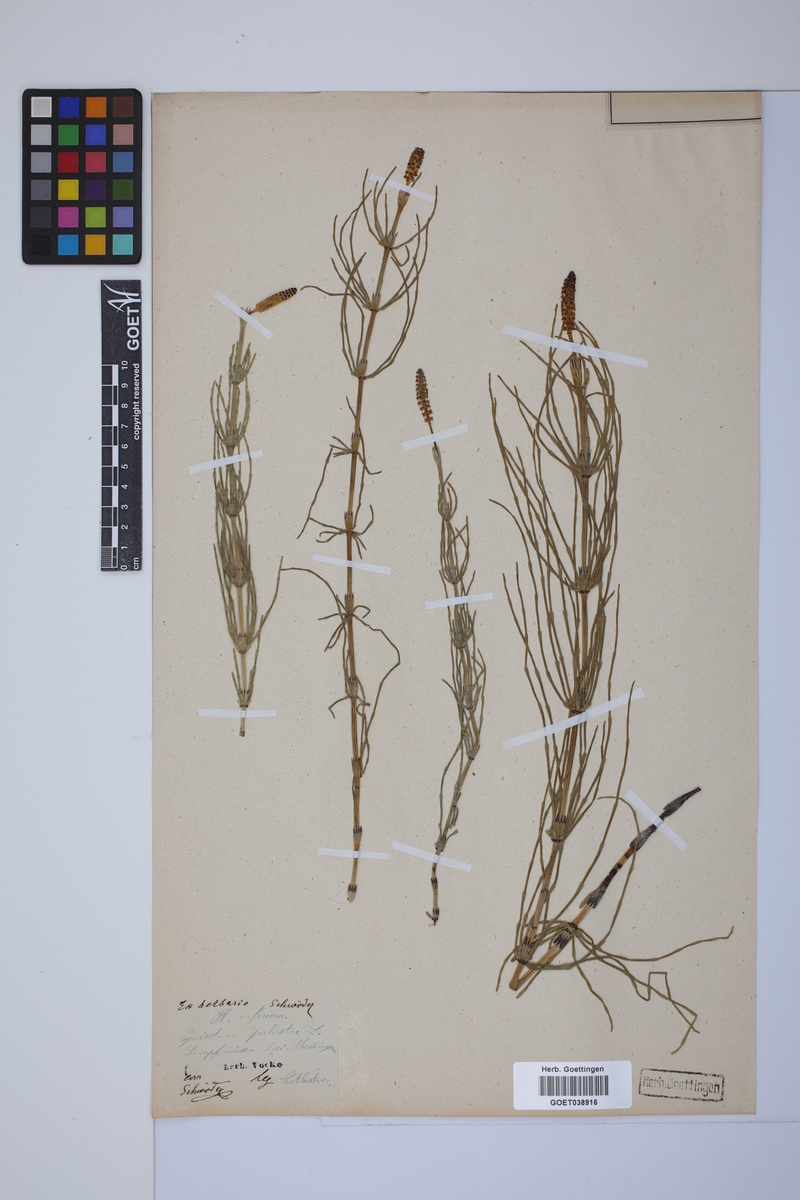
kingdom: Plantae
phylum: Tracheophyta
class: Polypodiopsida
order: Equisetales
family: Equisetaceae
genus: Equisetum
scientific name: Equisetum palustre
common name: Marsh horsetail
